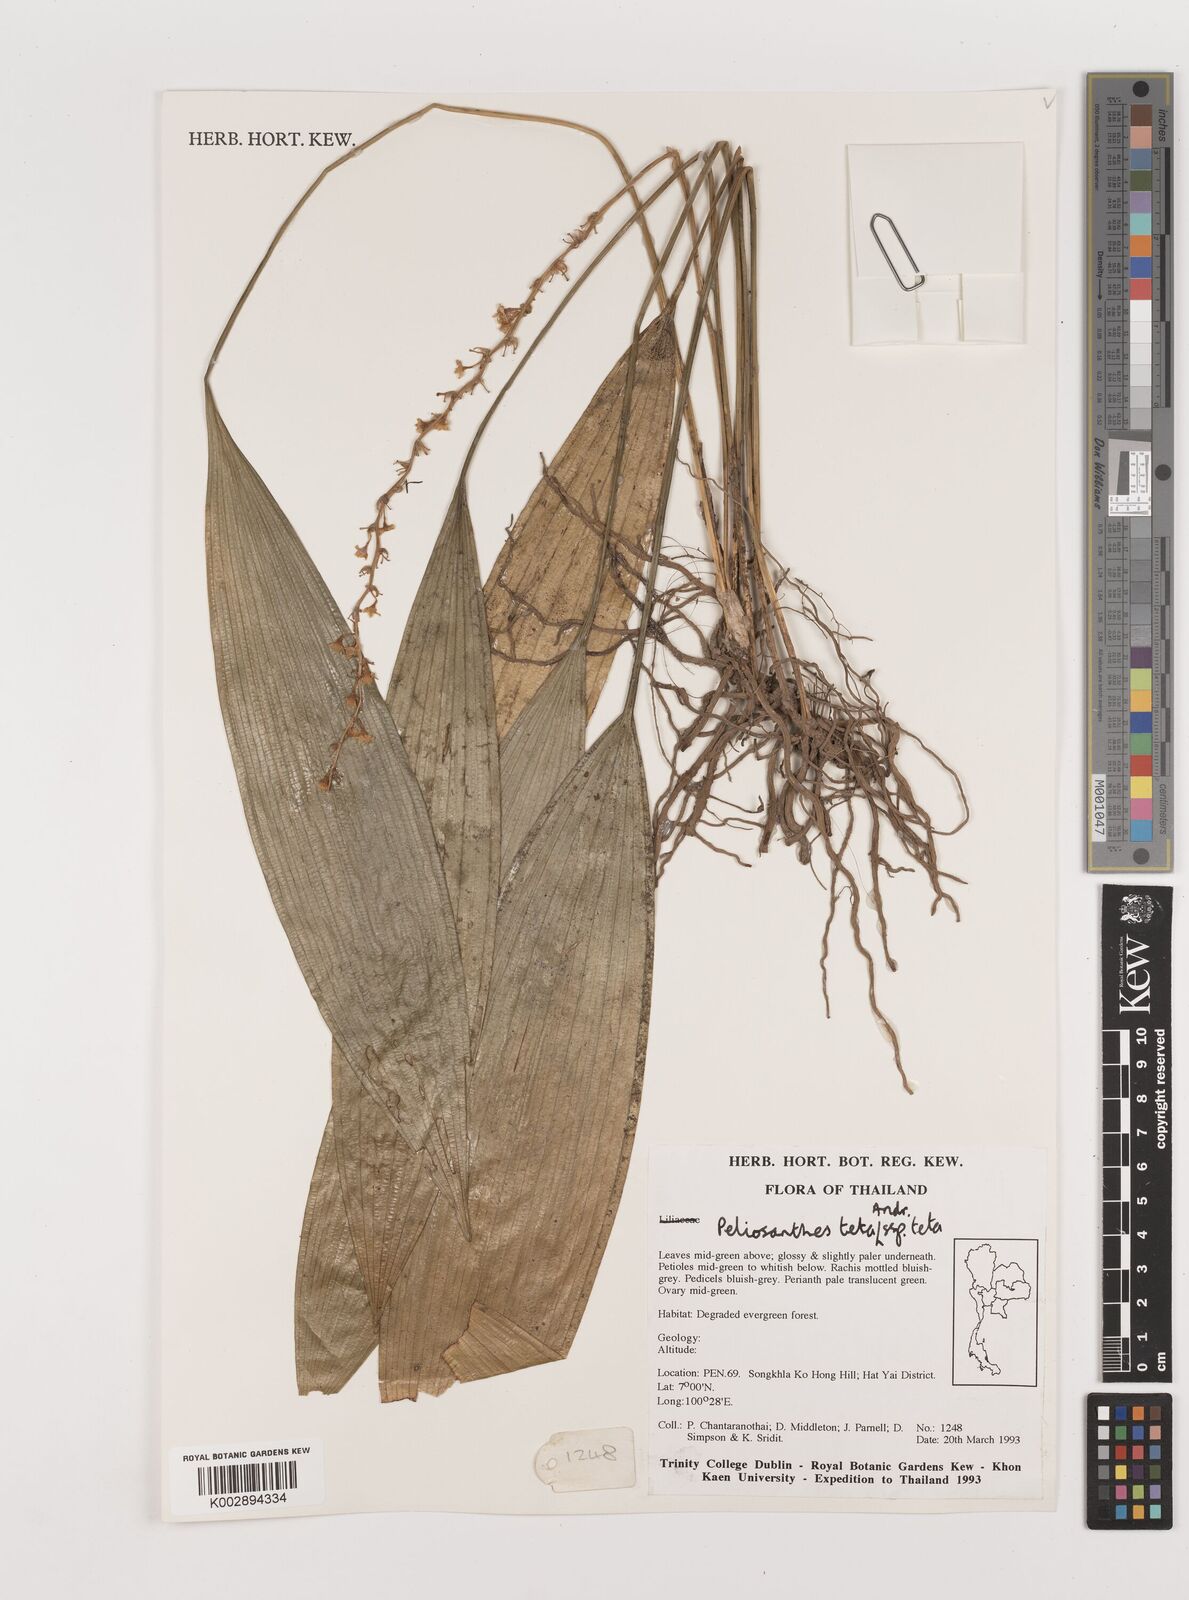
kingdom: Plantae
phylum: Tracheophyta
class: Liliopsida
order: Asparagales
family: Asparagaceae
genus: Peliosanthes
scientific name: Peliosanthes teta
